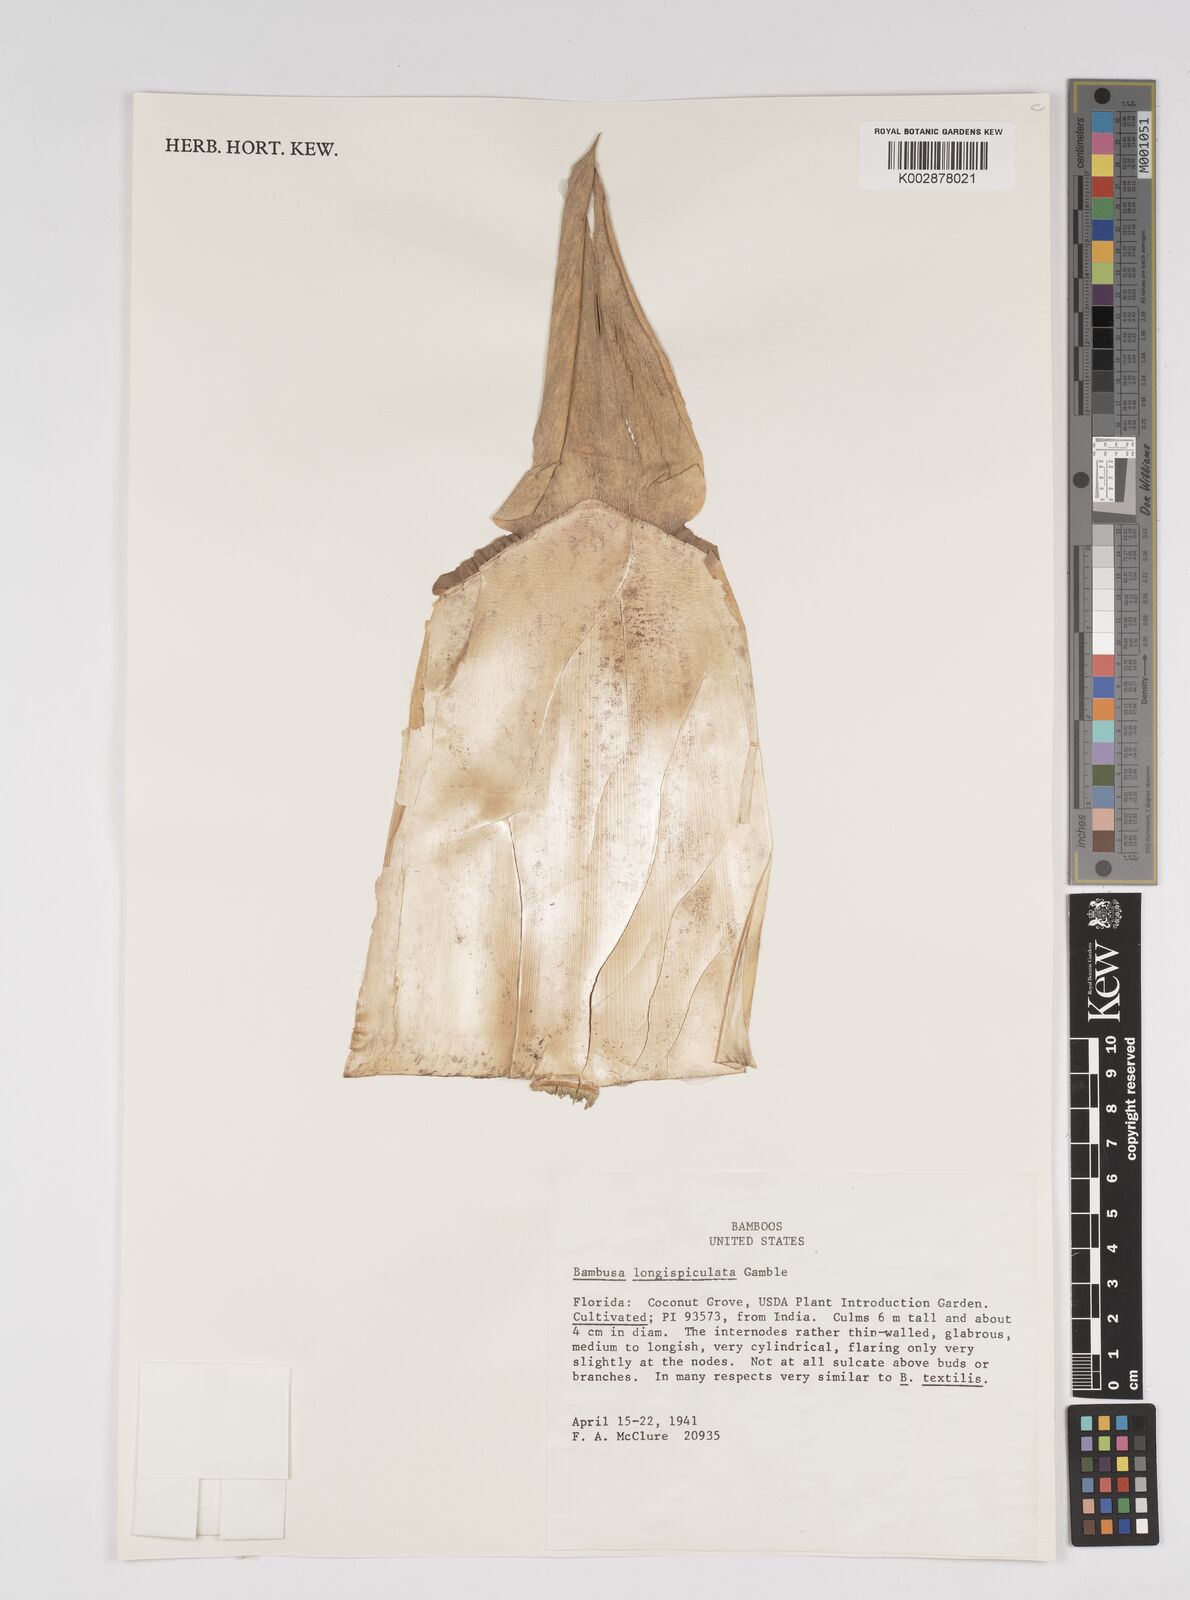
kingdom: Plantae
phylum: Tracheophyta
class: Liliopsida
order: Poales
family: Poaceae
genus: Bambusa
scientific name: Bambusa longispiculata
